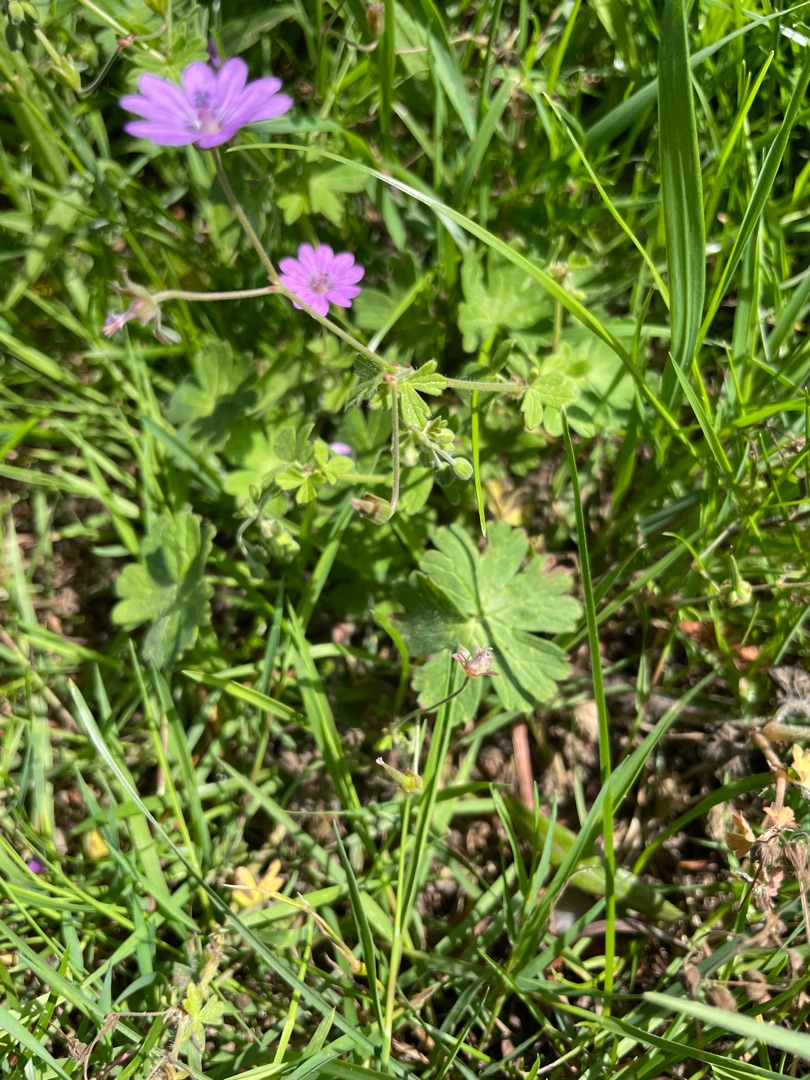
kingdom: Plantae
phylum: Tracheophyta
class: Magnoliopsida
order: Geraniales
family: Geraniaceae
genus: Geranium
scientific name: Geranium pyrenaicum
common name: Pyrenæisk storkenæb
